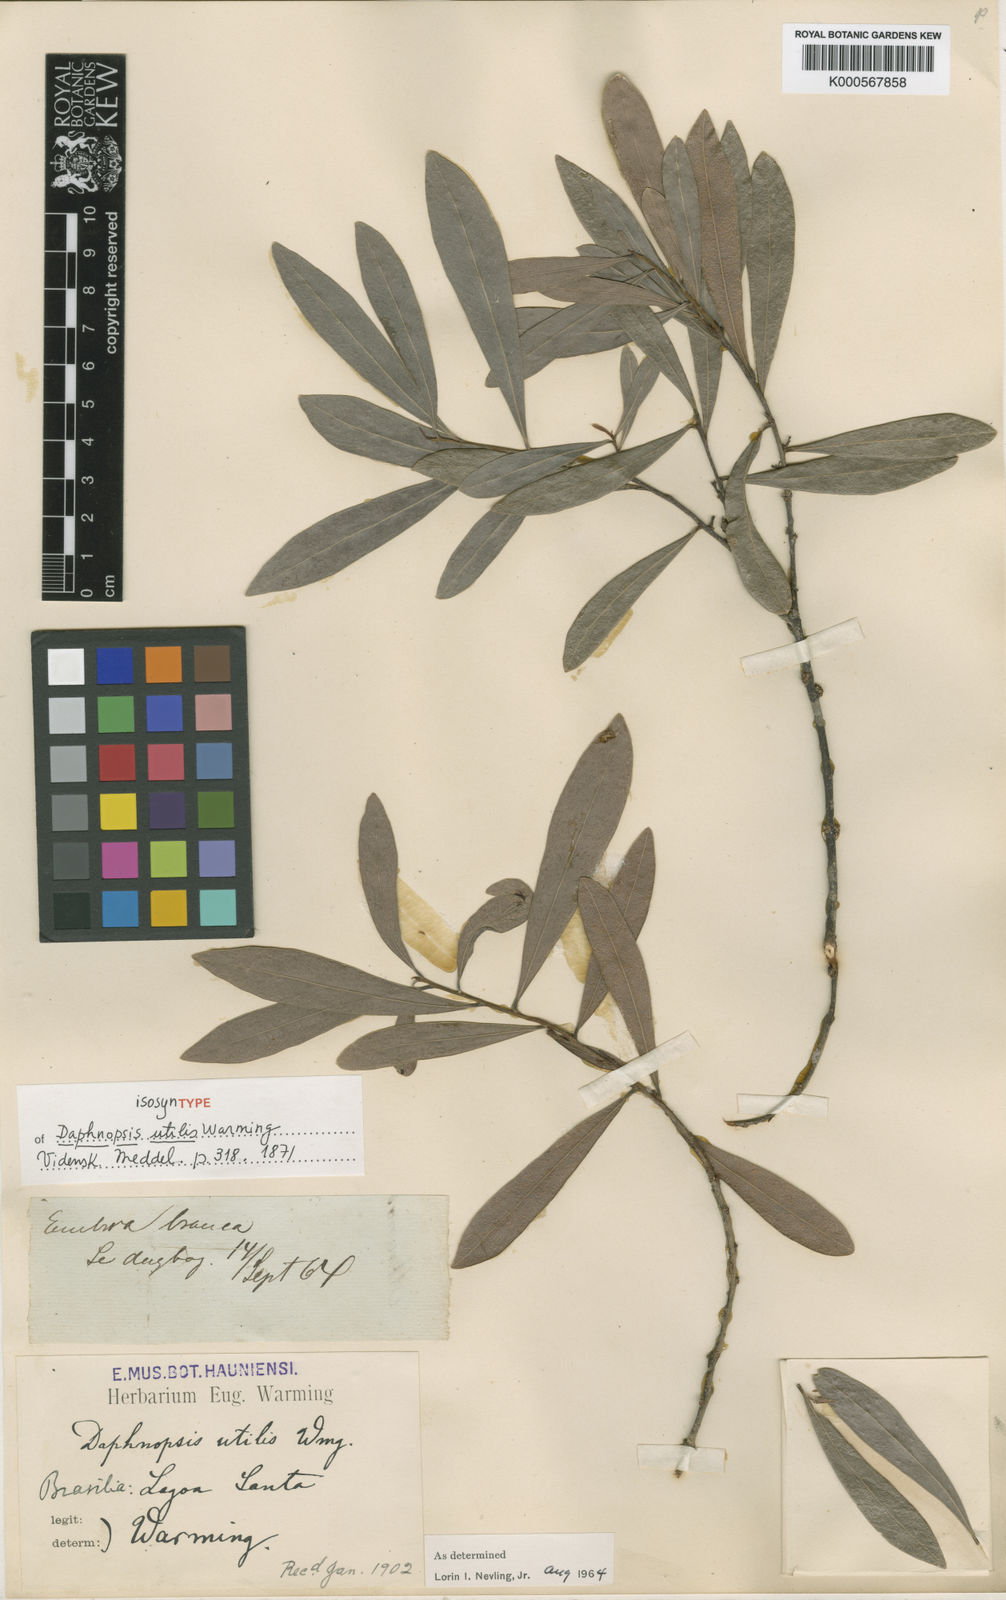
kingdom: Plantae
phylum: Tracheophyta
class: Magnoliopsida
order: Malvales
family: Thymelaeaceae
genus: Daphnopsis
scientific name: Daphnopsis utilis
